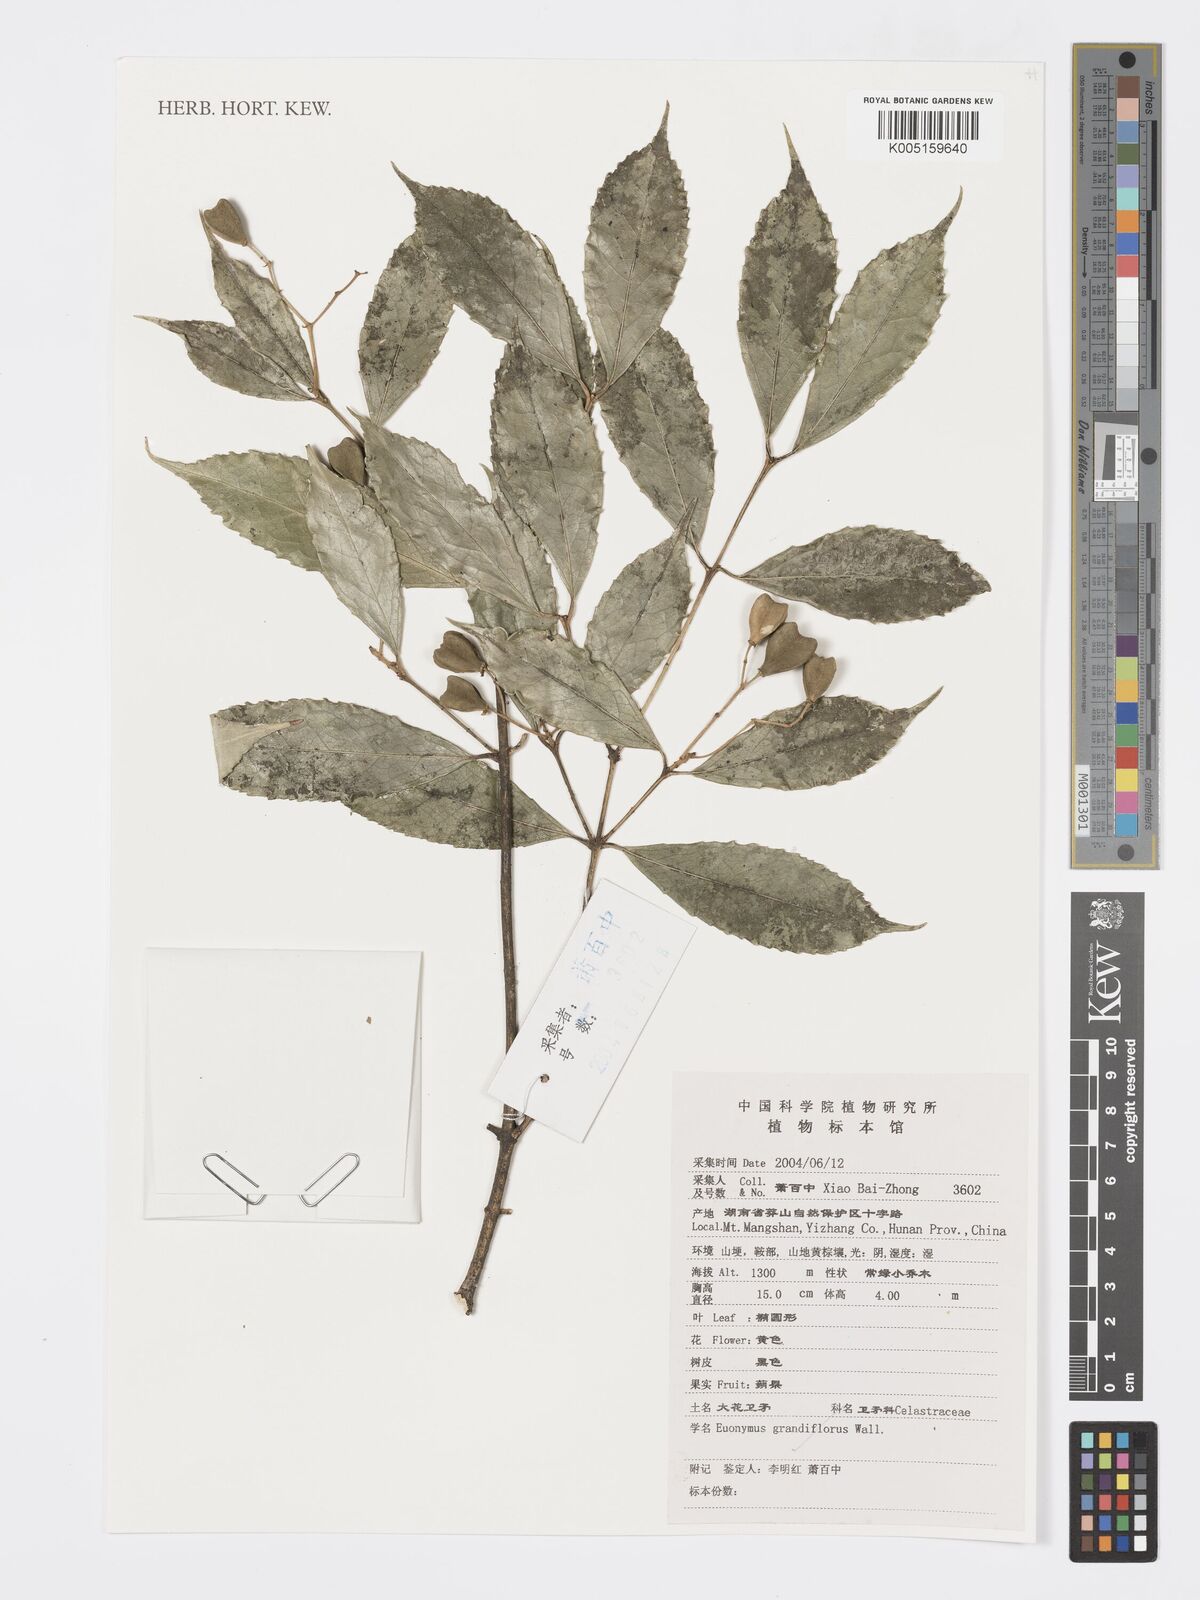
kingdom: Plantae
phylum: Tracheophyta
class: Magnoliopsida
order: Celastrales
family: Celastraceae
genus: Euonymus
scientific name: Euonymus grandiflorus
